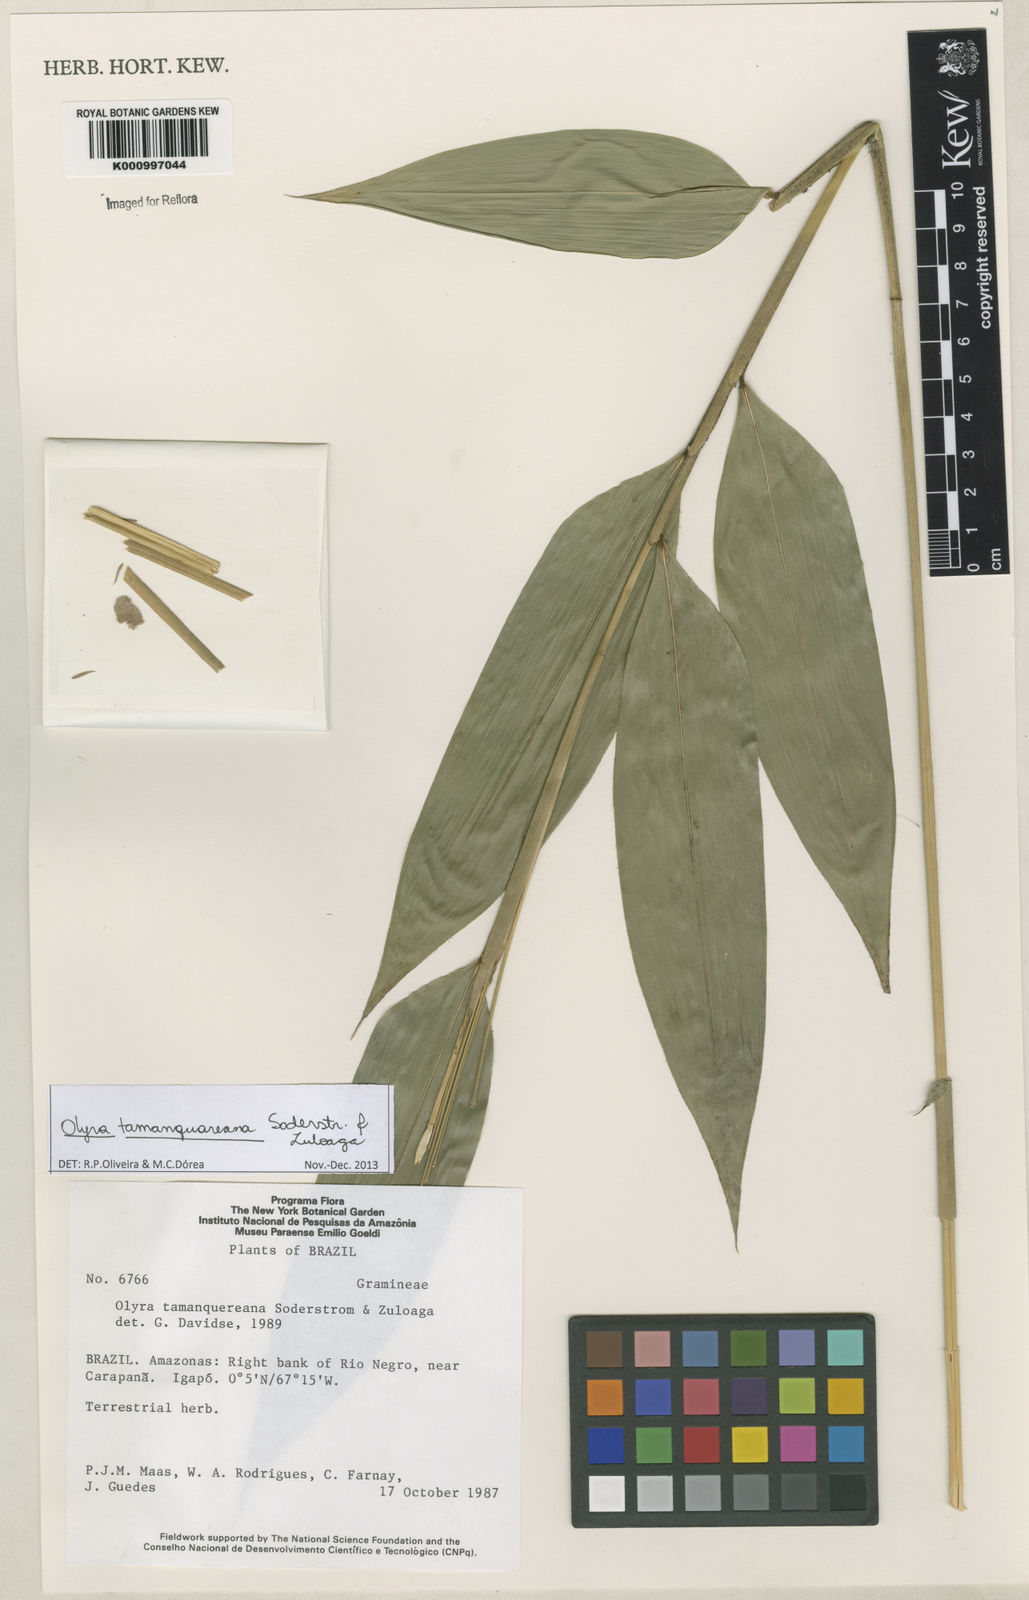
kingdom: Plantae
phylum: Tracheophyta
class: Liliopsida
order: Poales
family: Poaceae
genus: Olyra
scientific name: Olyra tamanquareana
